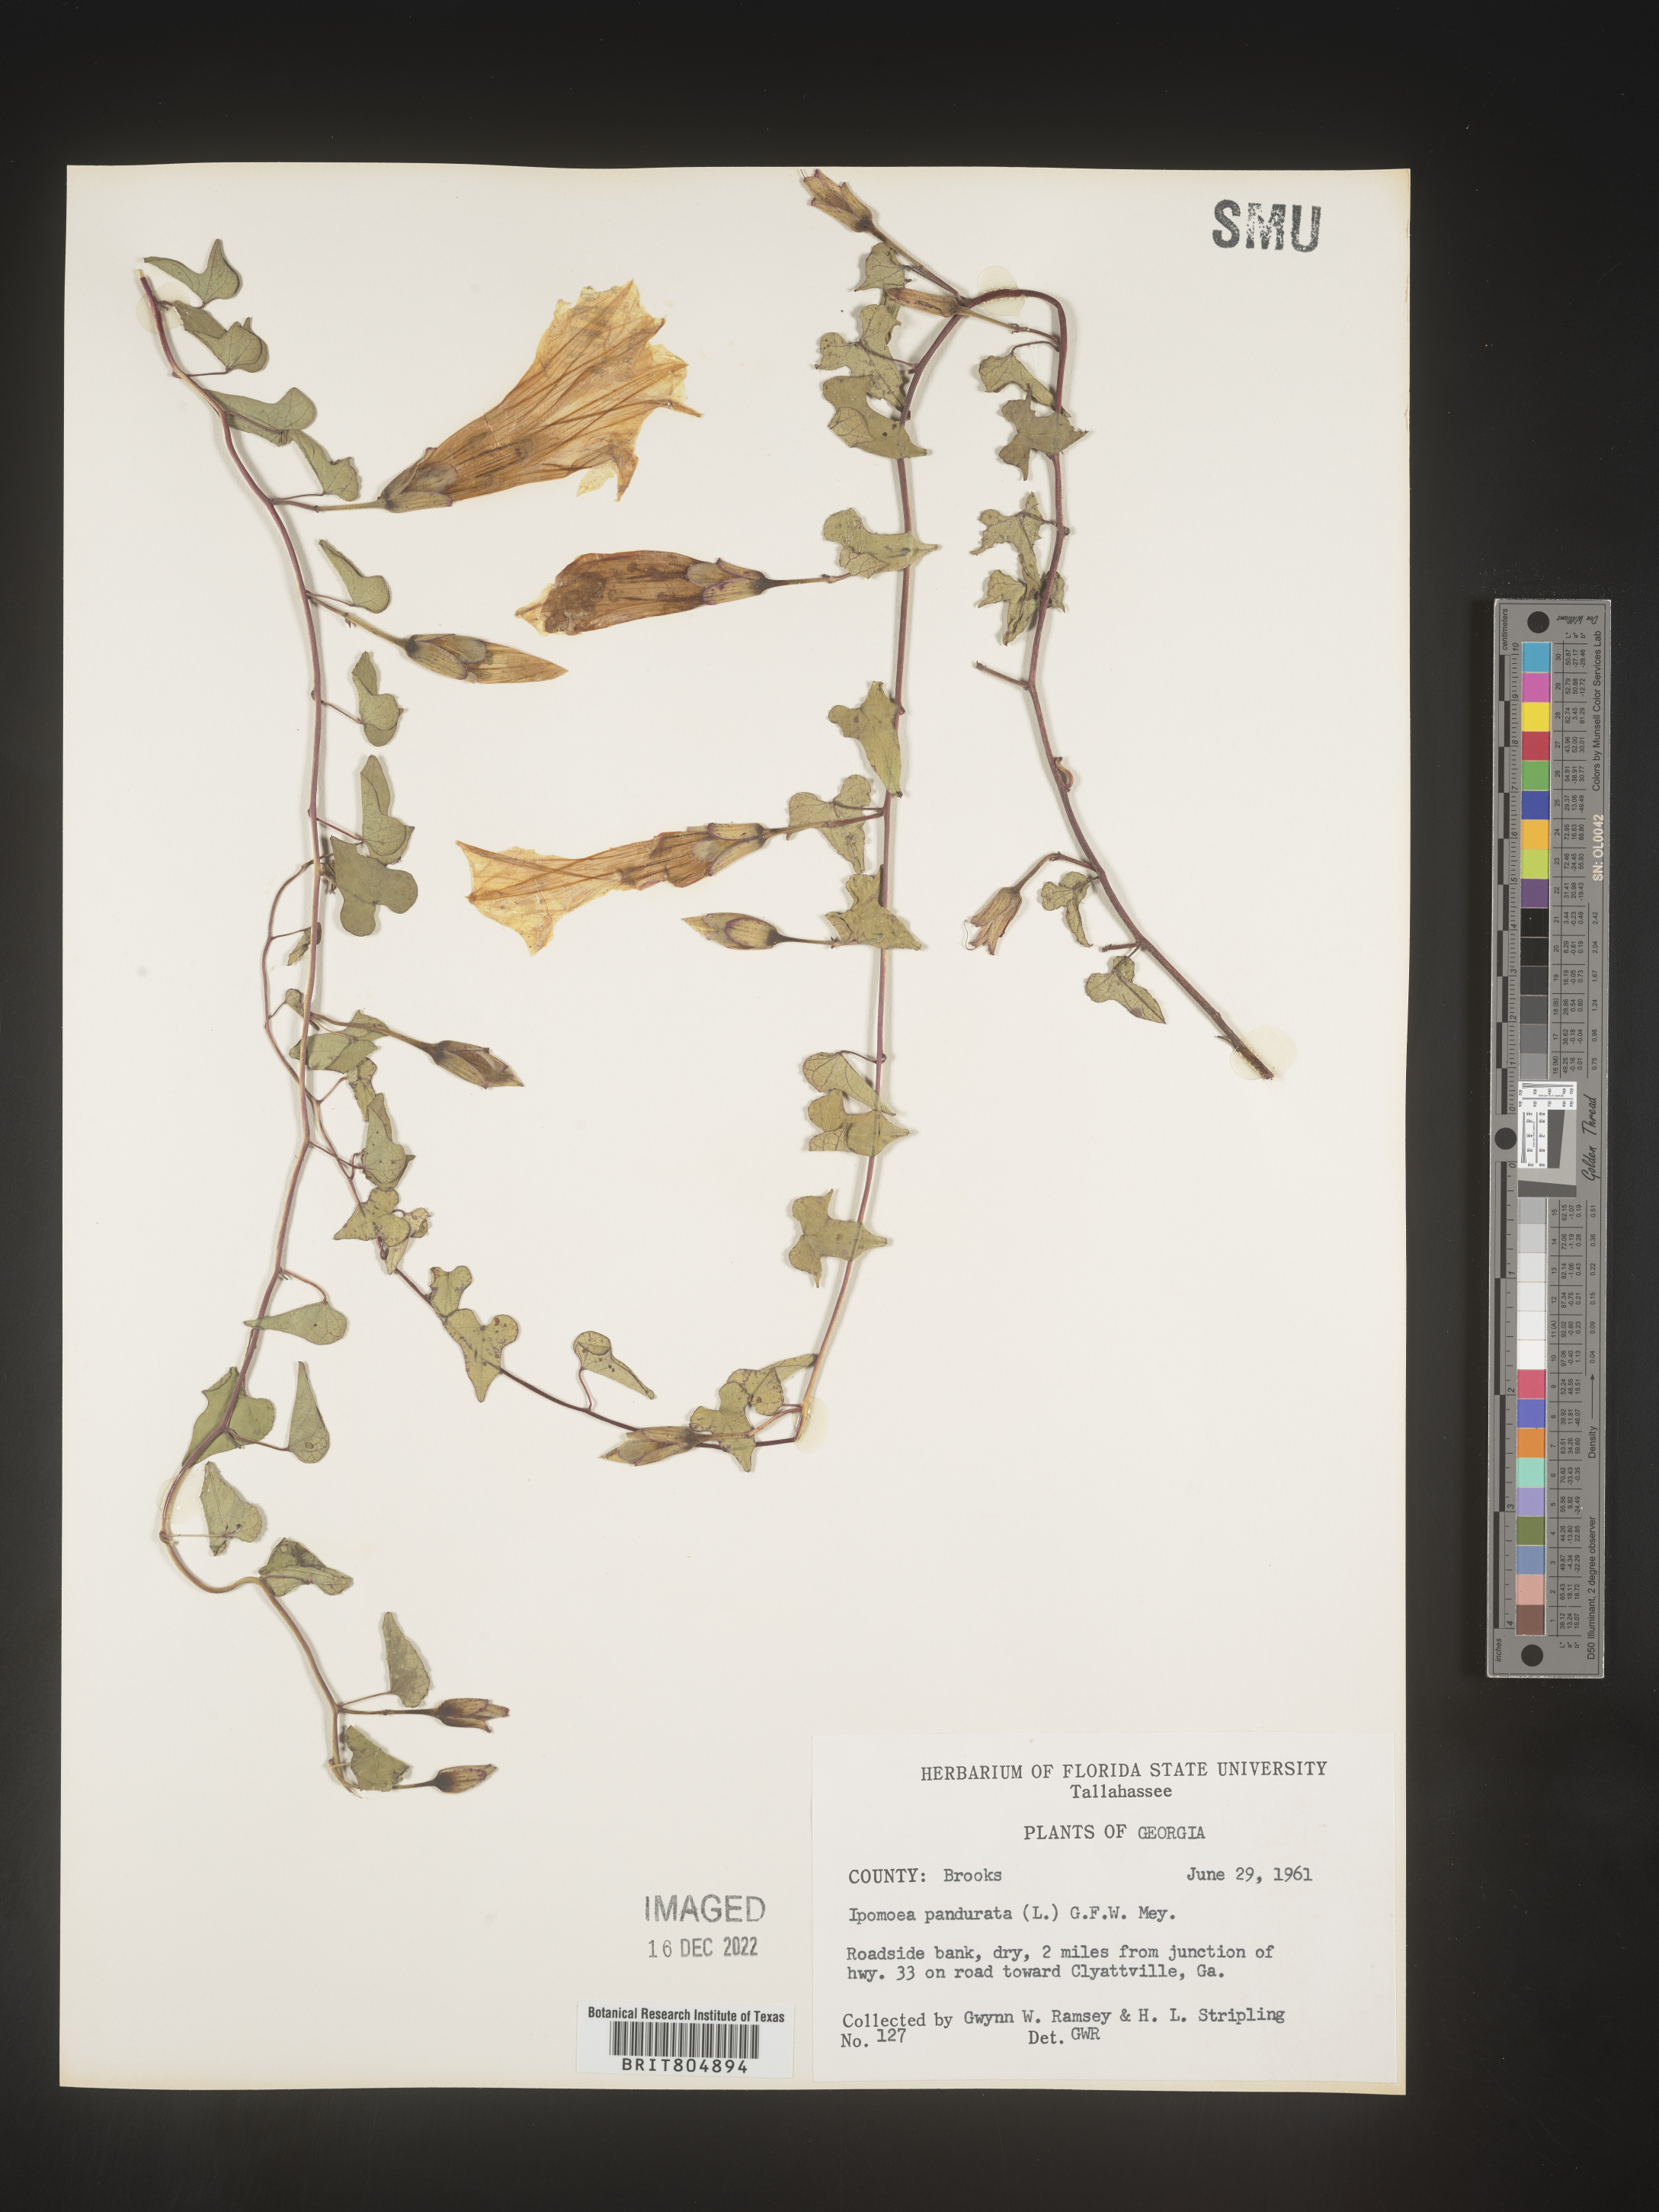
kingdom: Plantae
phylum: Tracheophyta
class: Magnoliopsida
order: Solanales
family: Convolvulaceae
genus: Ipomoea
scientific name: Ipomoea pandurata
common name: Man-of-the-earth
